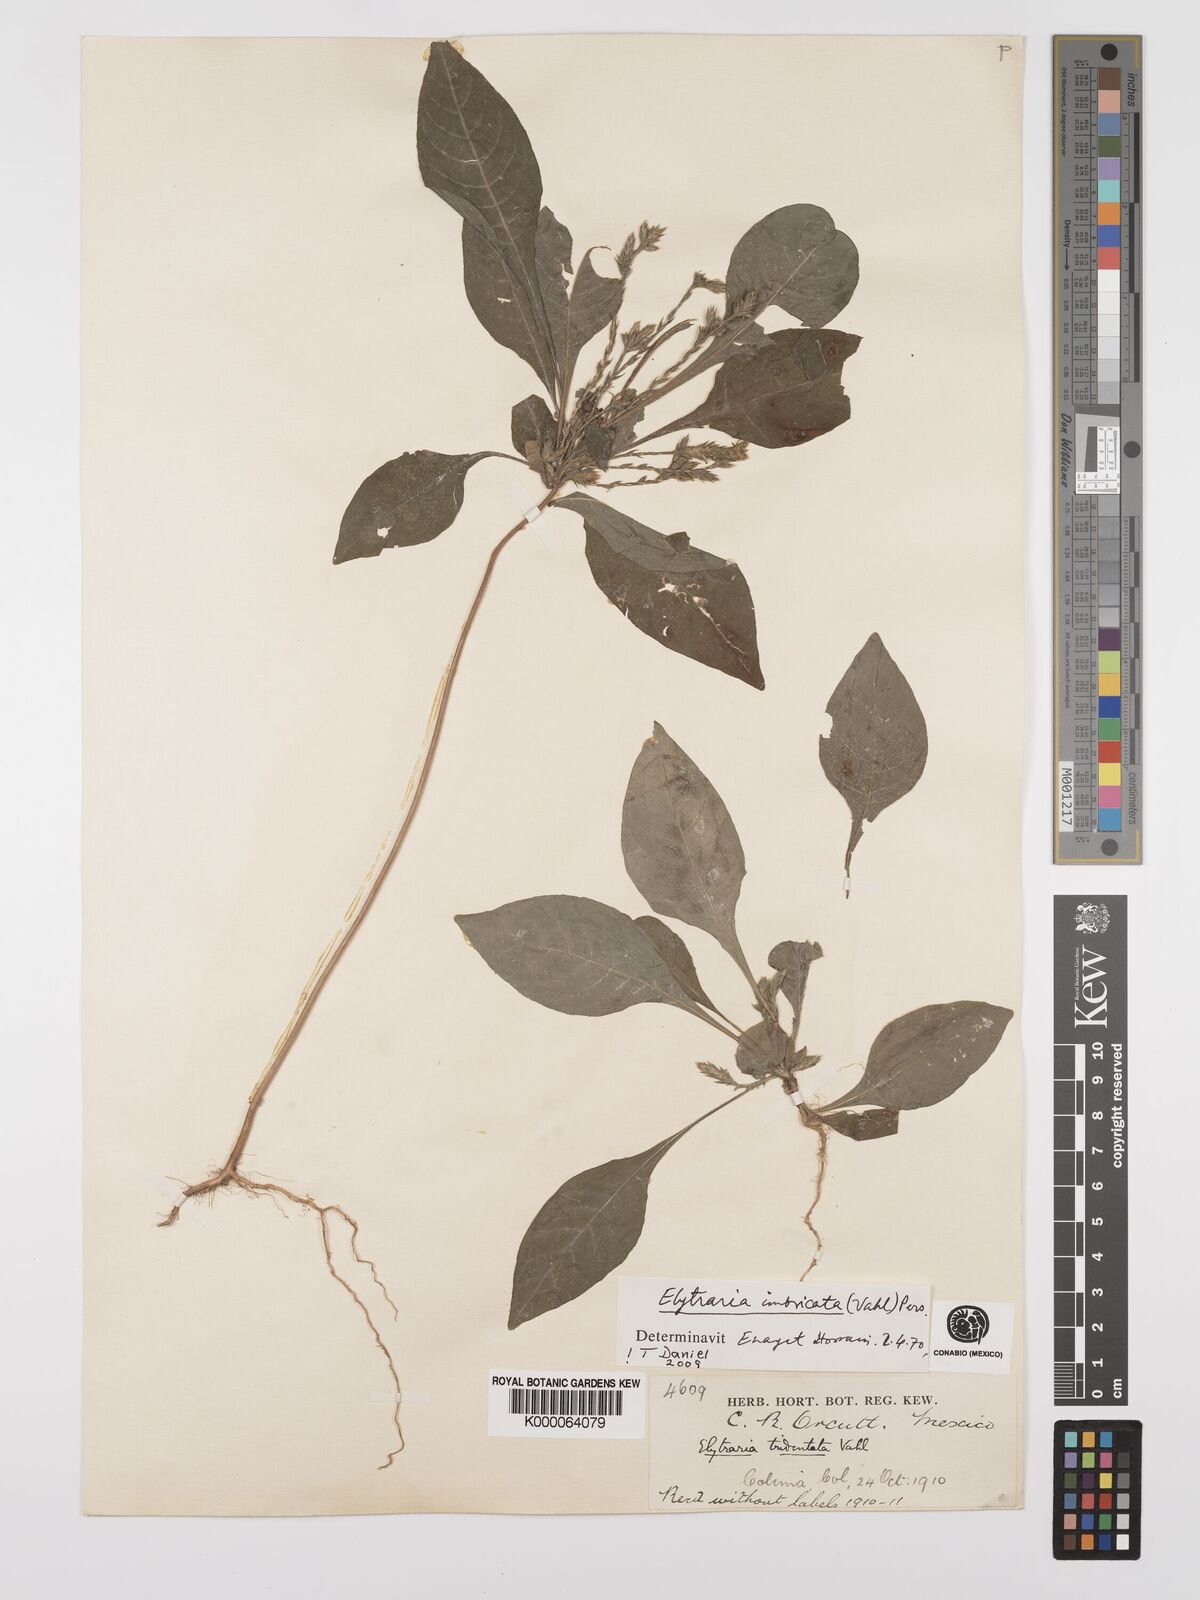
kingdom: Plantae
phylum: Tracheophyta
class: Magnoliopsida
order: Lamiales
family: Acanthaceae
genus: Elytraria
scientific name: Elytraria imbricata
